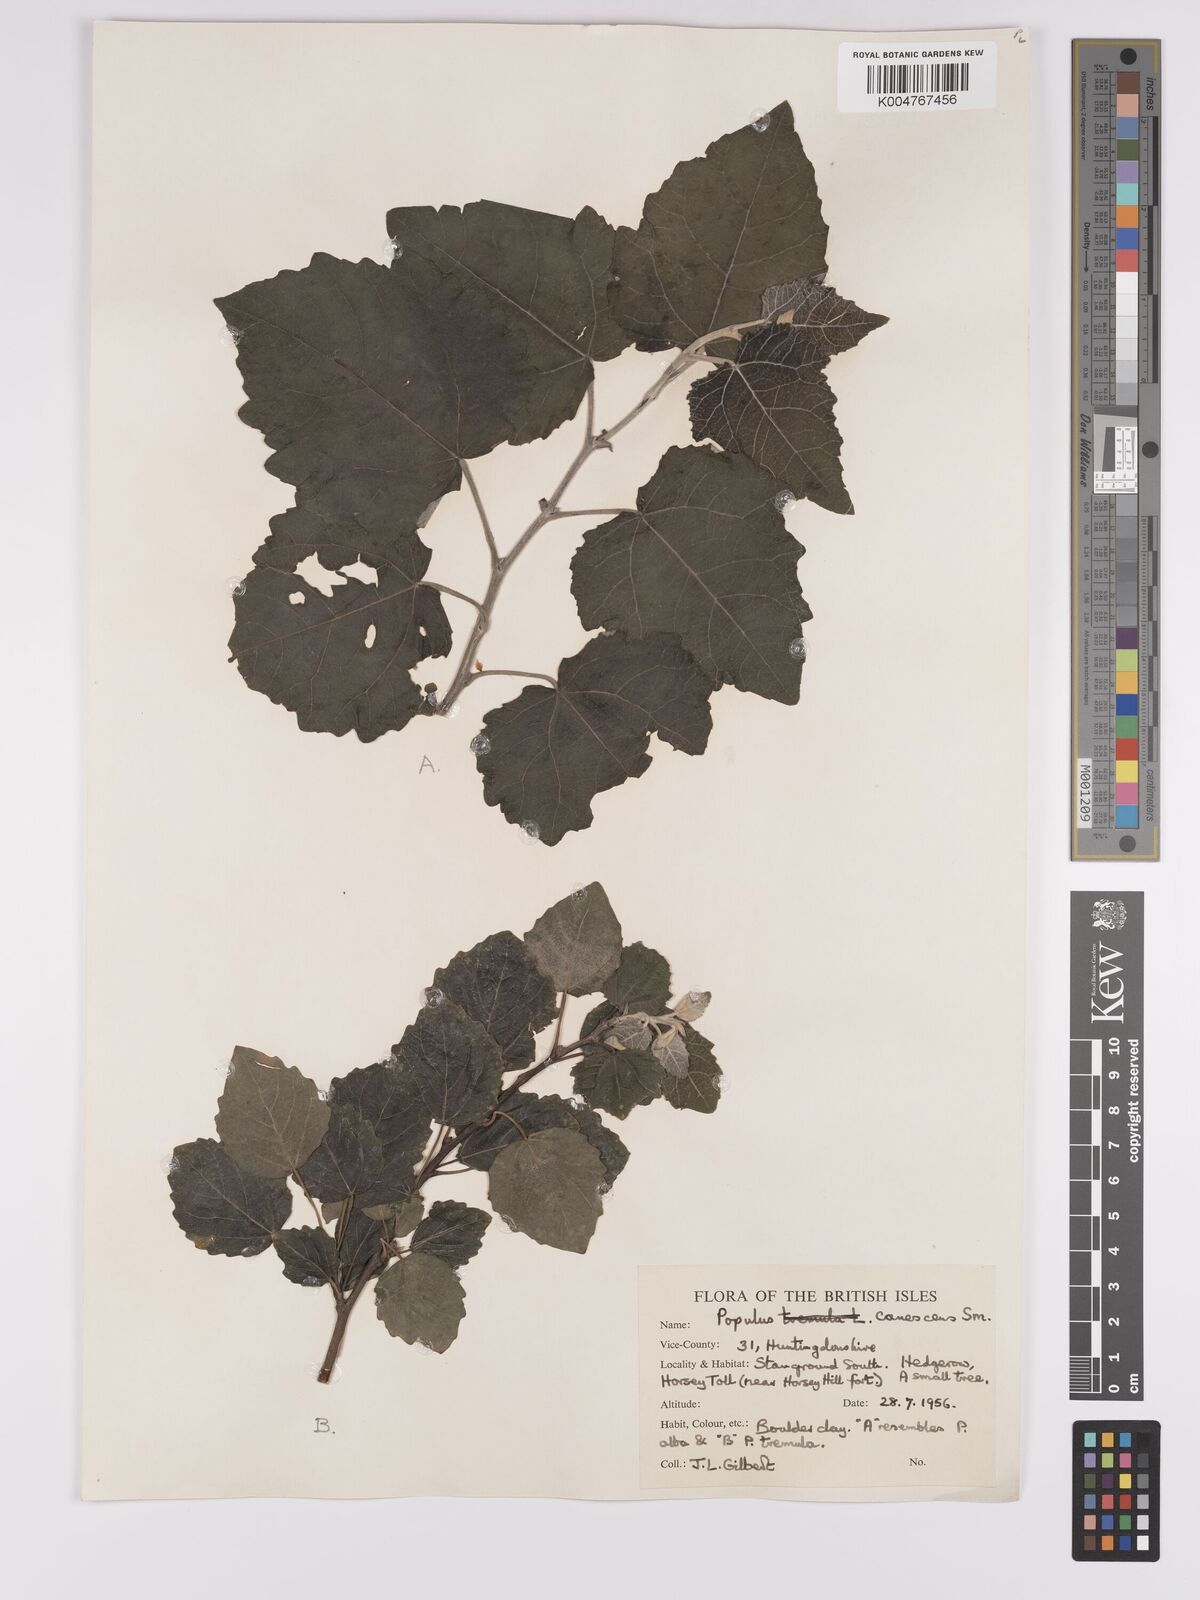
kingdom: Plantae
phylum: Tracheophyta
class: Magnoliopsida
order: Malpighiales
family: Salicaceae
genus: Populus
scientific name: Populus canescens
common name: Gray poplar
